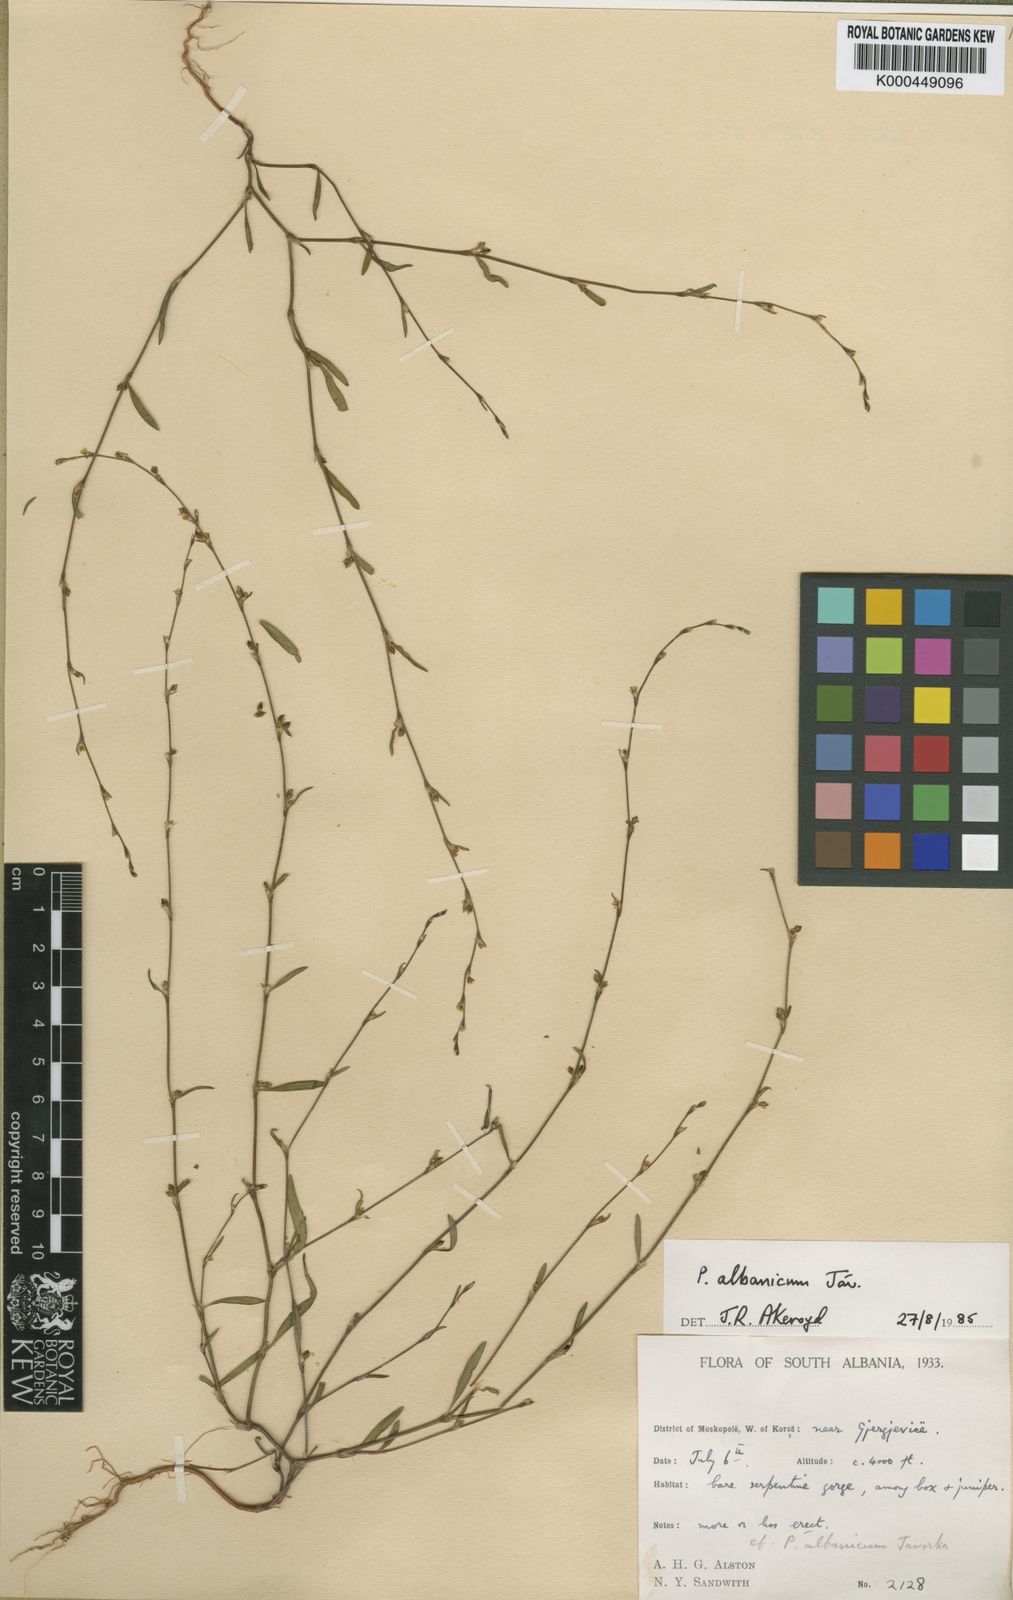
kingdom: Plantae
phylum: Tracheophyta
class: Magnoliopsida
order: Caryophyllales
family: Polygonaceae
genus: Polygonum
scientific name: Polygonum albanicum
